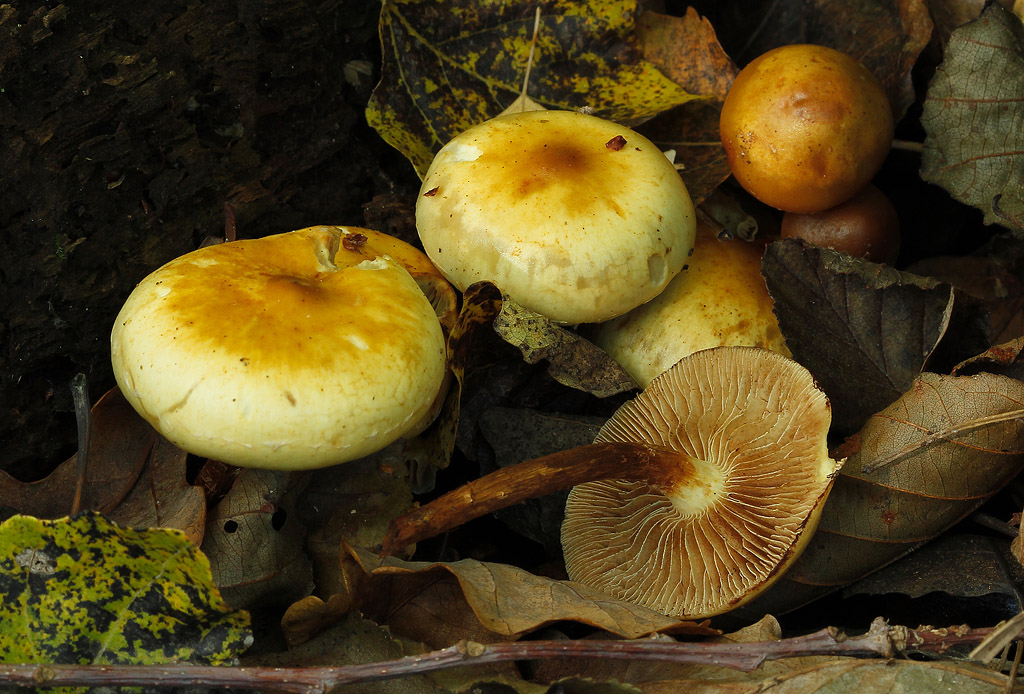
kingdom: Fungi
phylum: Basidiomycota
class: Agaricomycetes
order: Agaricales
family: Hymenogastraceae
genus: Flammula
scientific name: Flammula alnicola
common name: elle-skælhat
